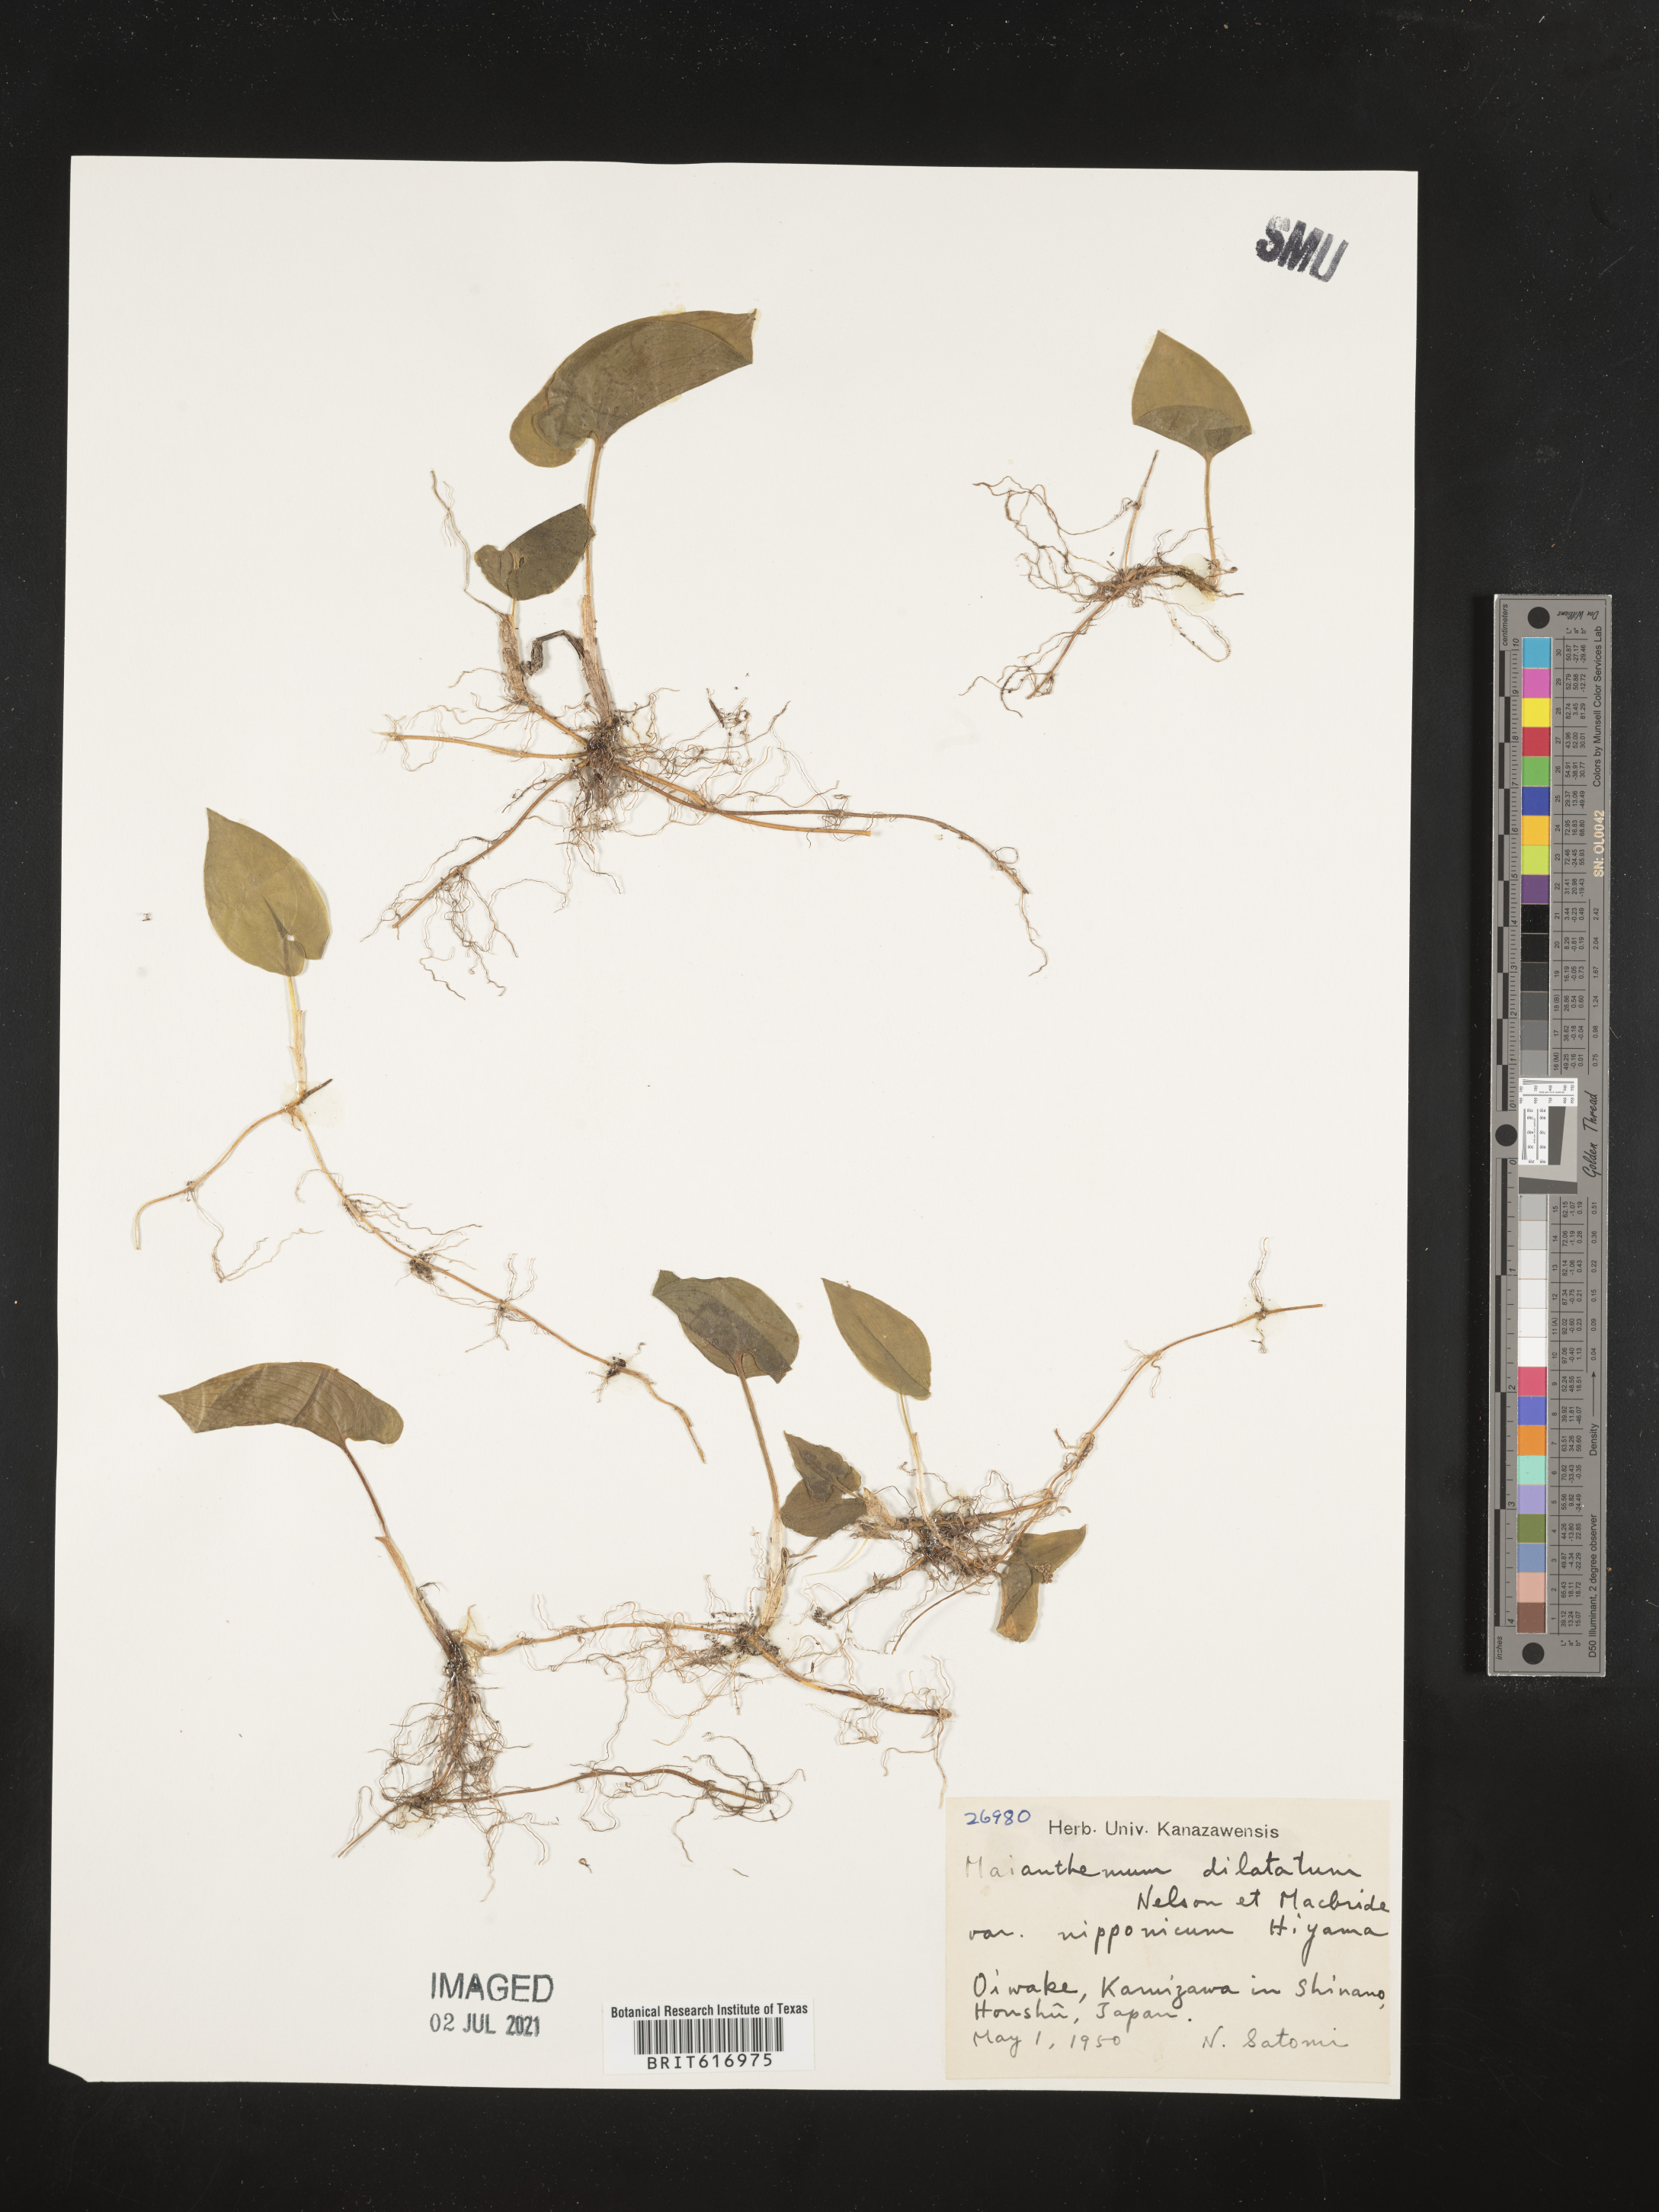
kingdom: Plantae
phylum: Tracheophyta
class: Liliopsida
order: Asparagales
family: Asparagaceae
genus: Maianthemum
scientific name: Maianthemum dilatatum
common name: False lily-of-the-valley
